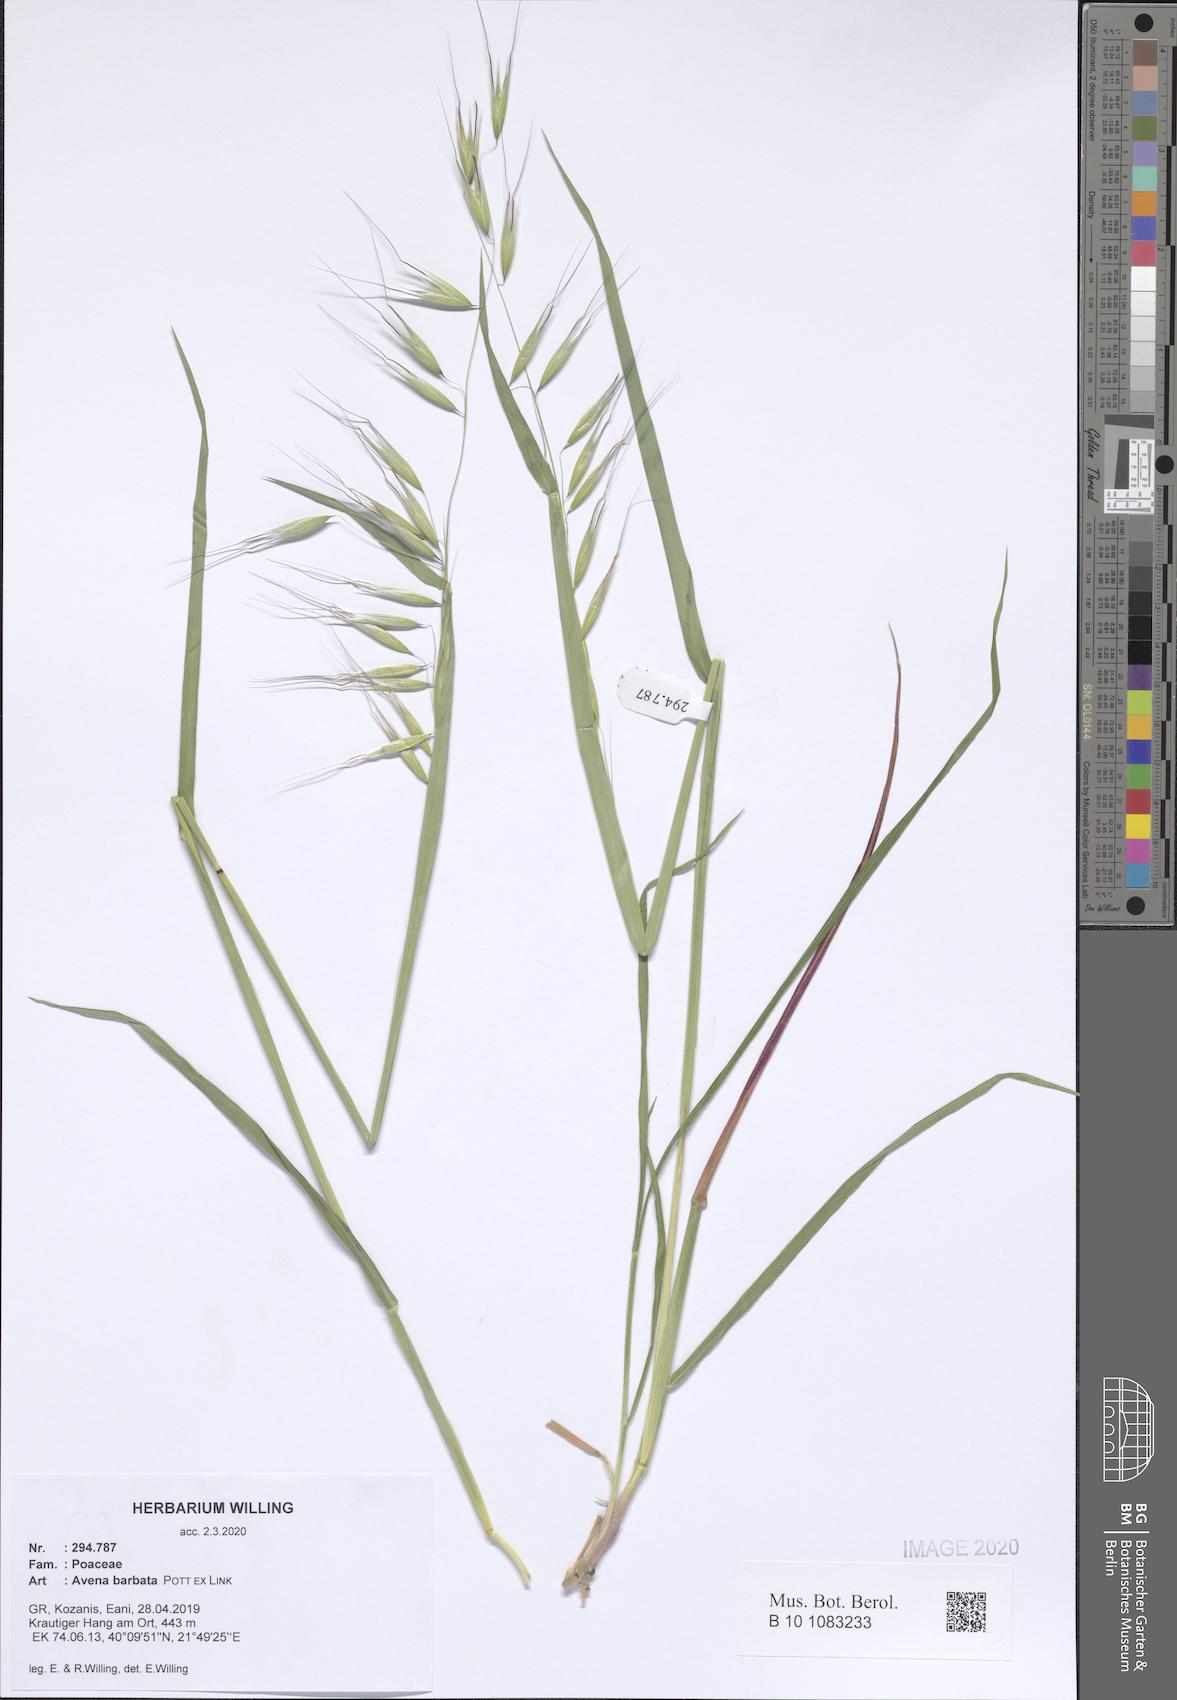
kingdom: Plantae
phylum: Tracheophyta
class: Liliopsida
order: Poales
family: Poaceae
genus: Avena
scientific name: Avena barbata
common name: Slender oat
